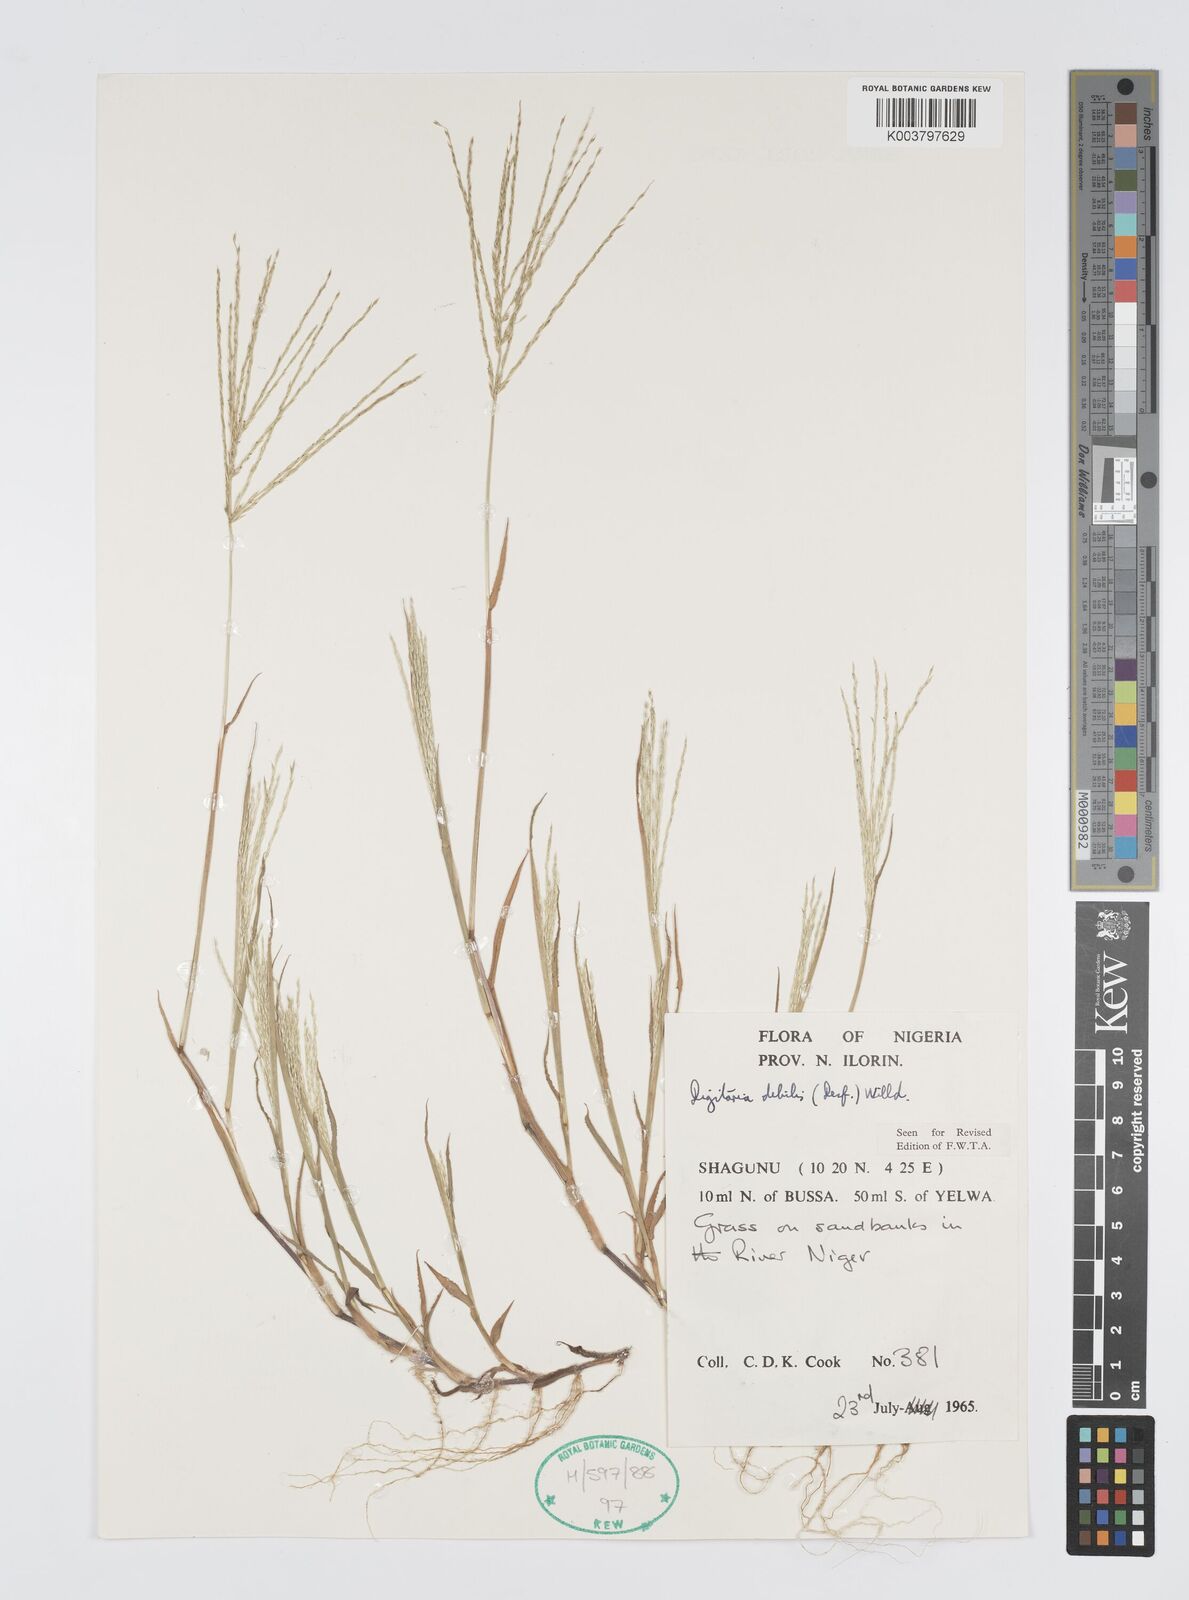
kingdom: Plantae
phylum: Tracheophyta
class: Liliopsida
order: Poales
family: Poaceae
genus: Digitaria
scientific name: Digitaria debilis
